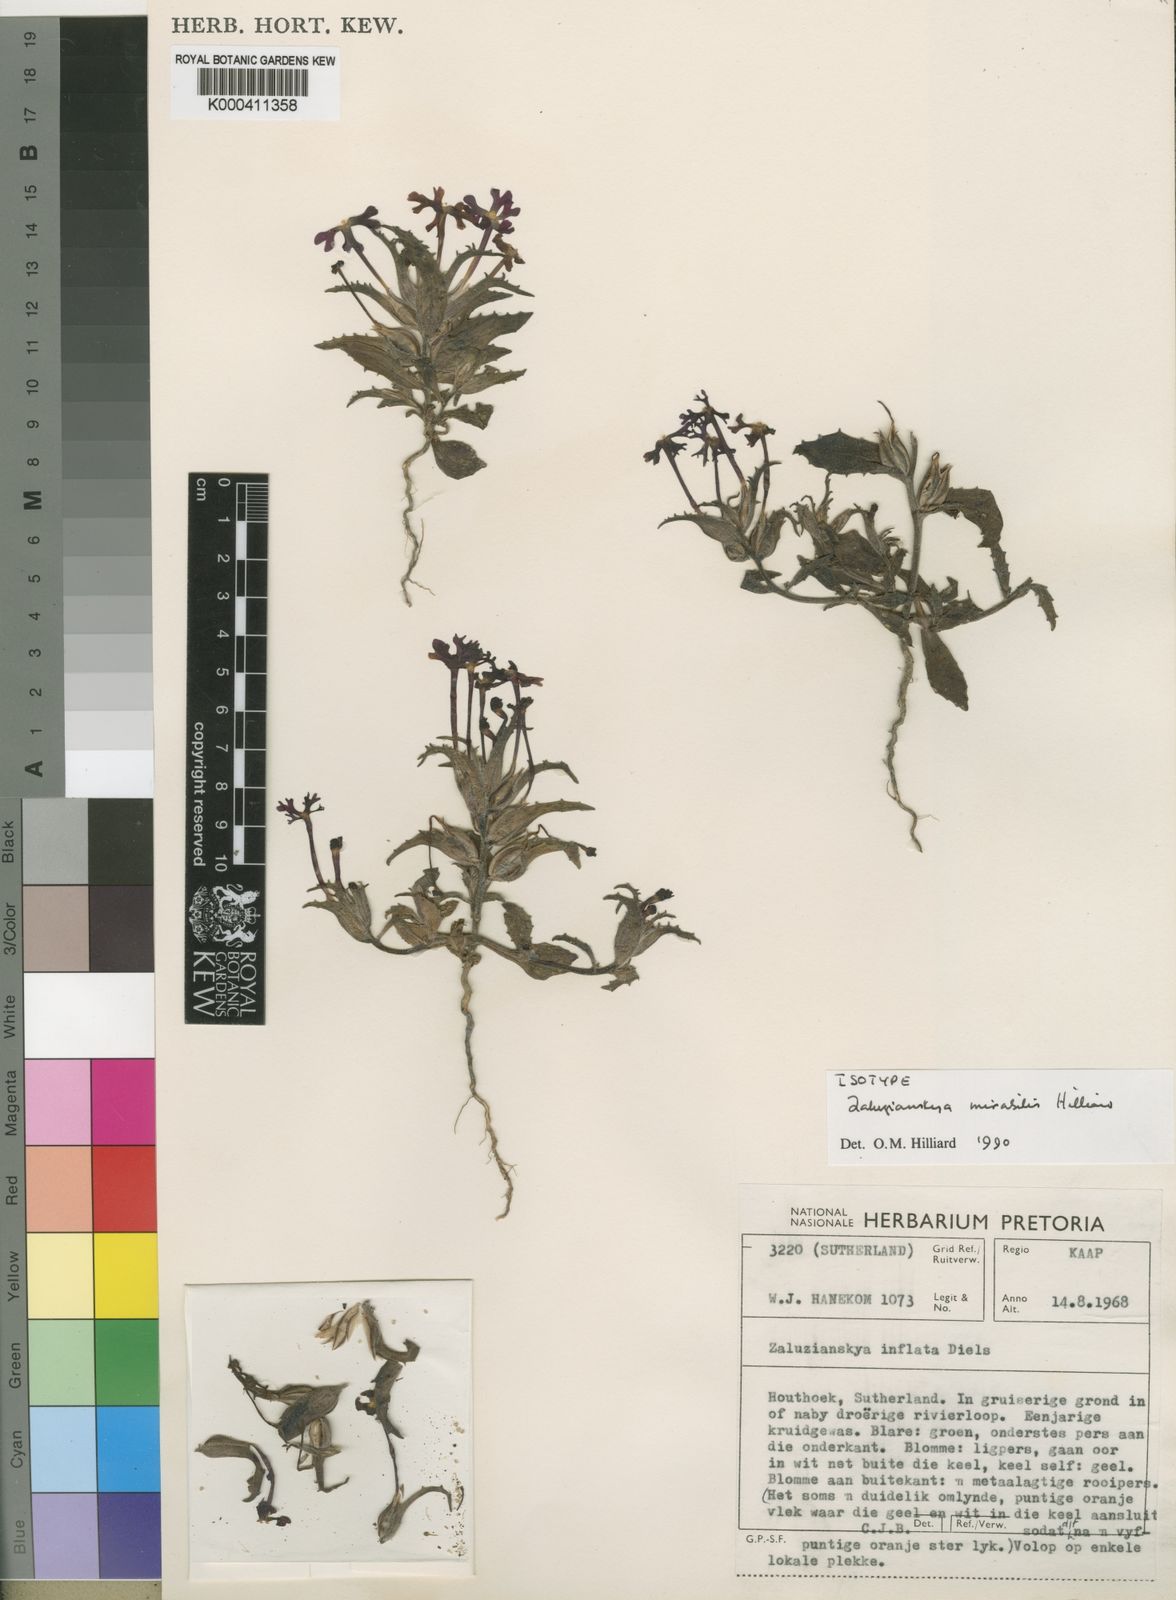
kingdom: Plantae
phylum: Tracheophyta
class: Magnoliopsida
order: Lamiales
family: Scrophulariaceae
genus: Zaluzianskya
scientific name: Zaluzianskya mirabilis
